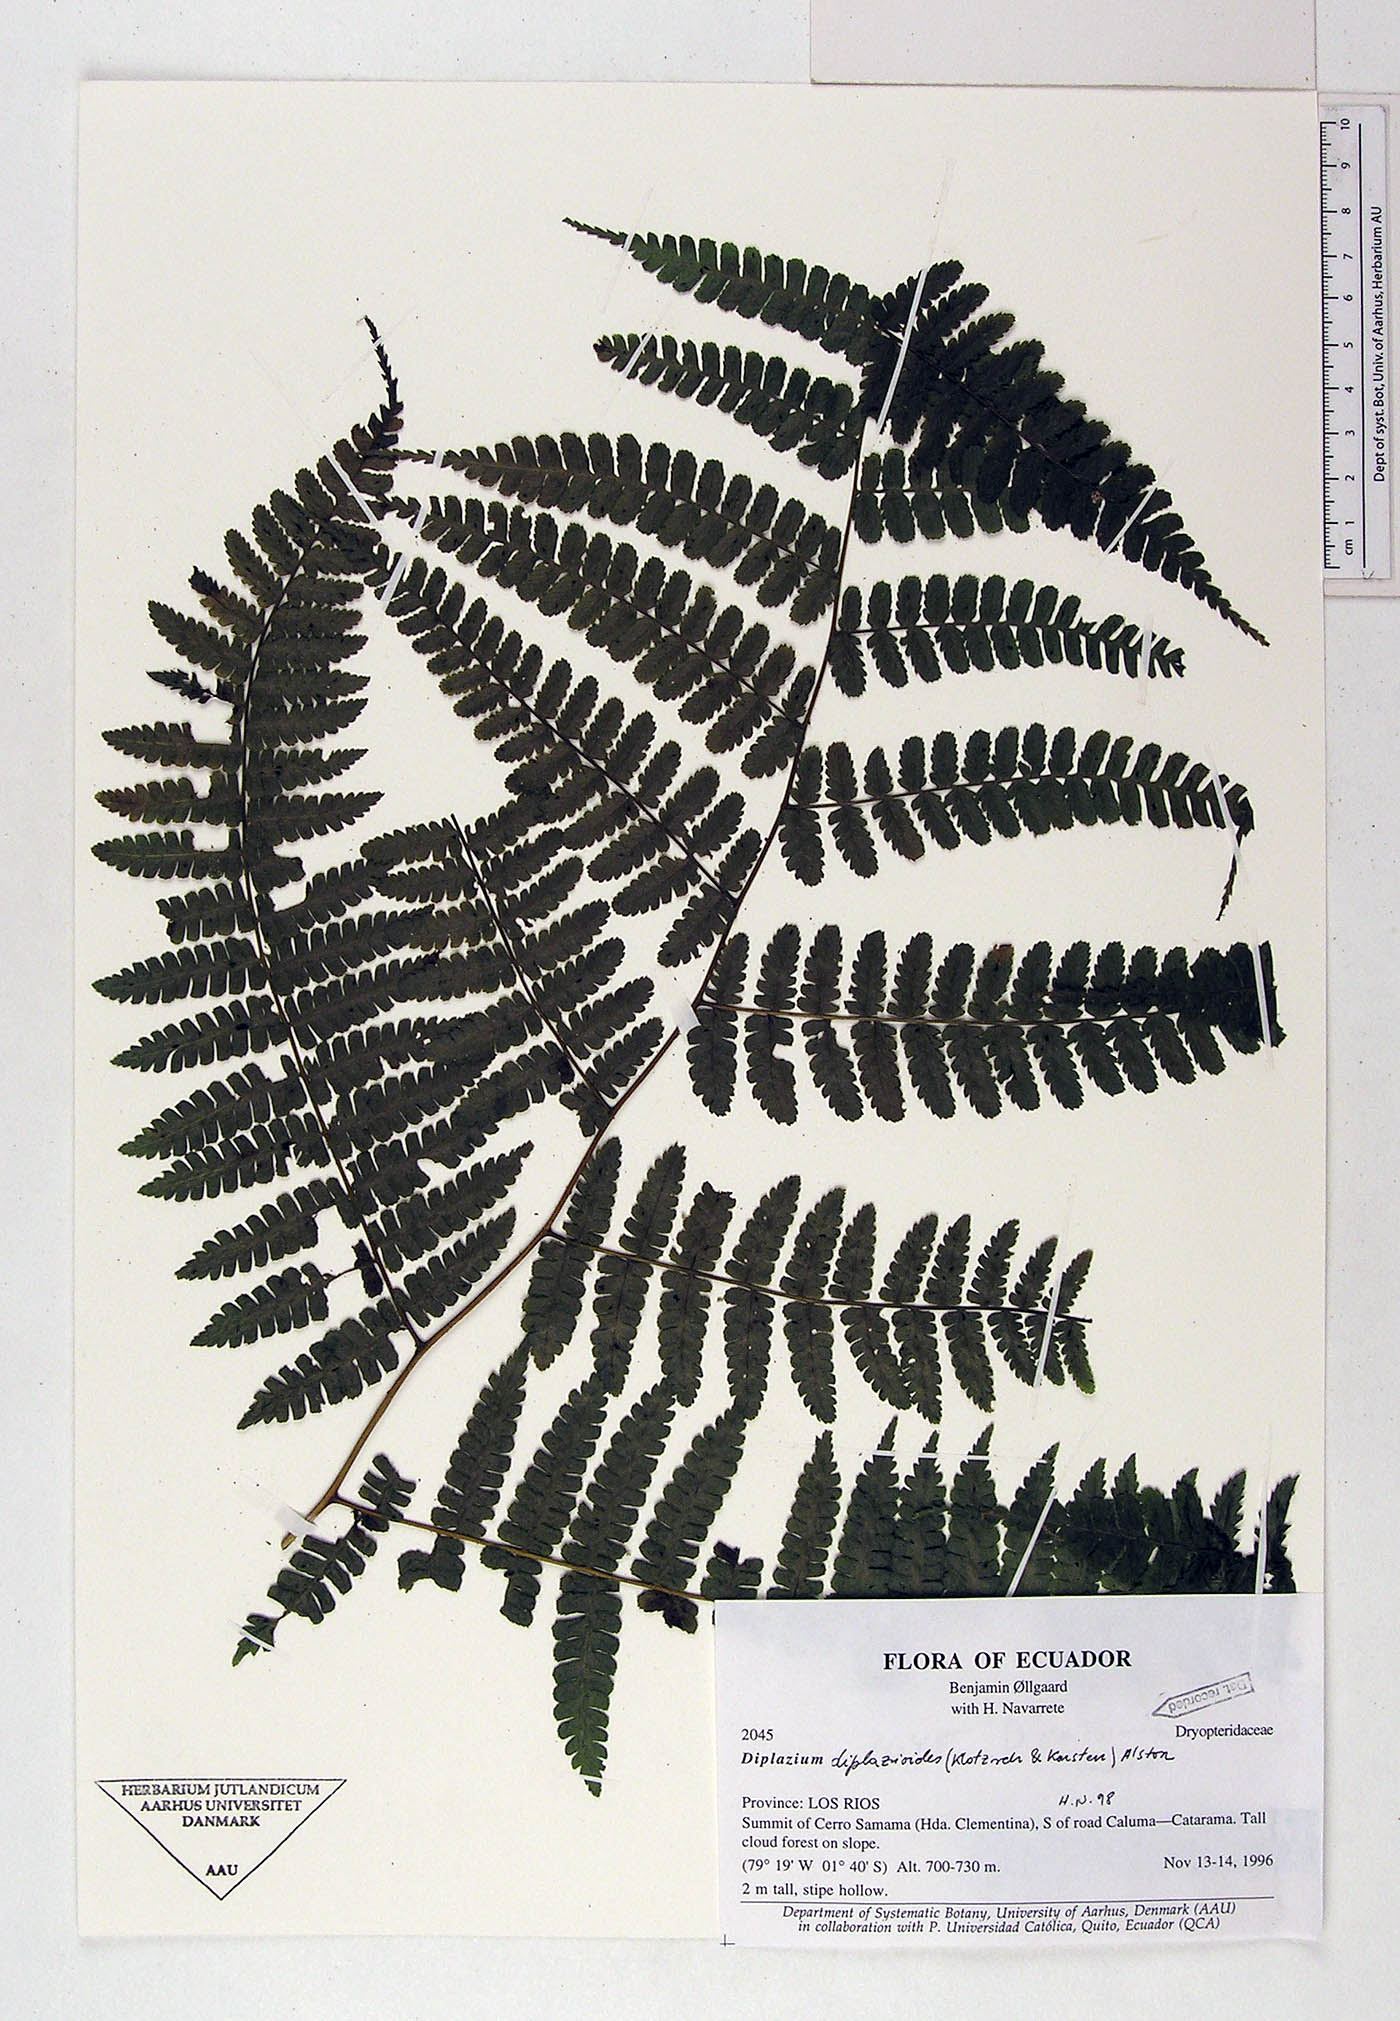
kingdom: Plantae
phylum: Tracheophyta
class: Polypodiopsida
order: Polypodiales
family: Athyriaceae
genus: Diplazium
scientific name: Diplazium diplazioides
